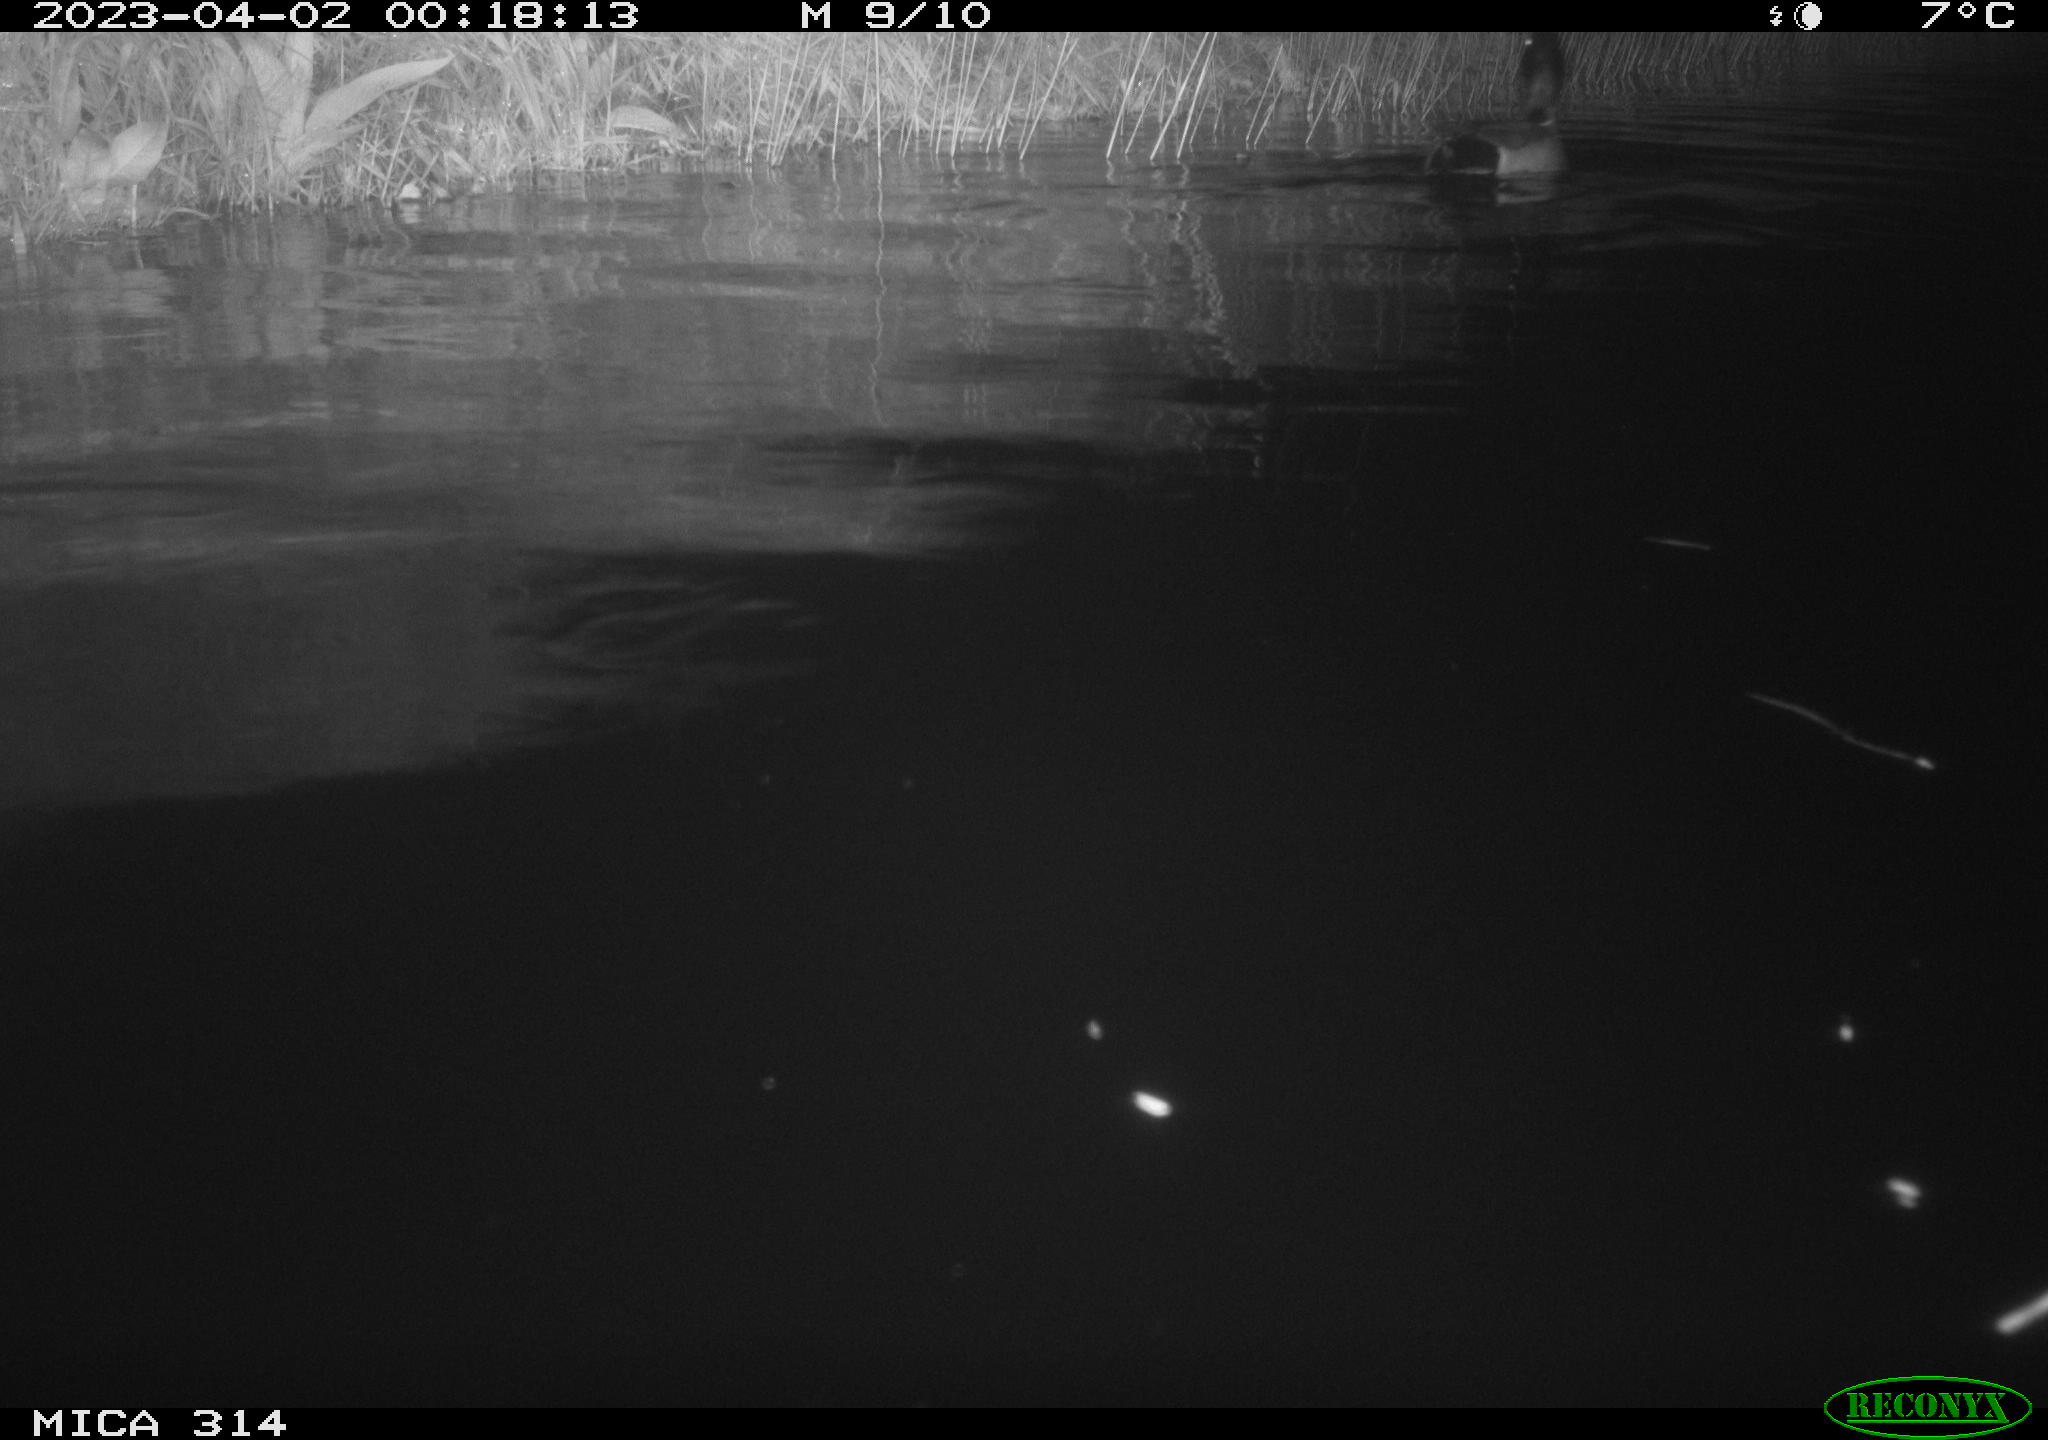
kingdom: Animalia
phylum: Chordata
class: Aves
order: Anseriformes
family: Anatidae
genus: Anas
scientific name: Anas platyrhynchos
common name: Mallard
